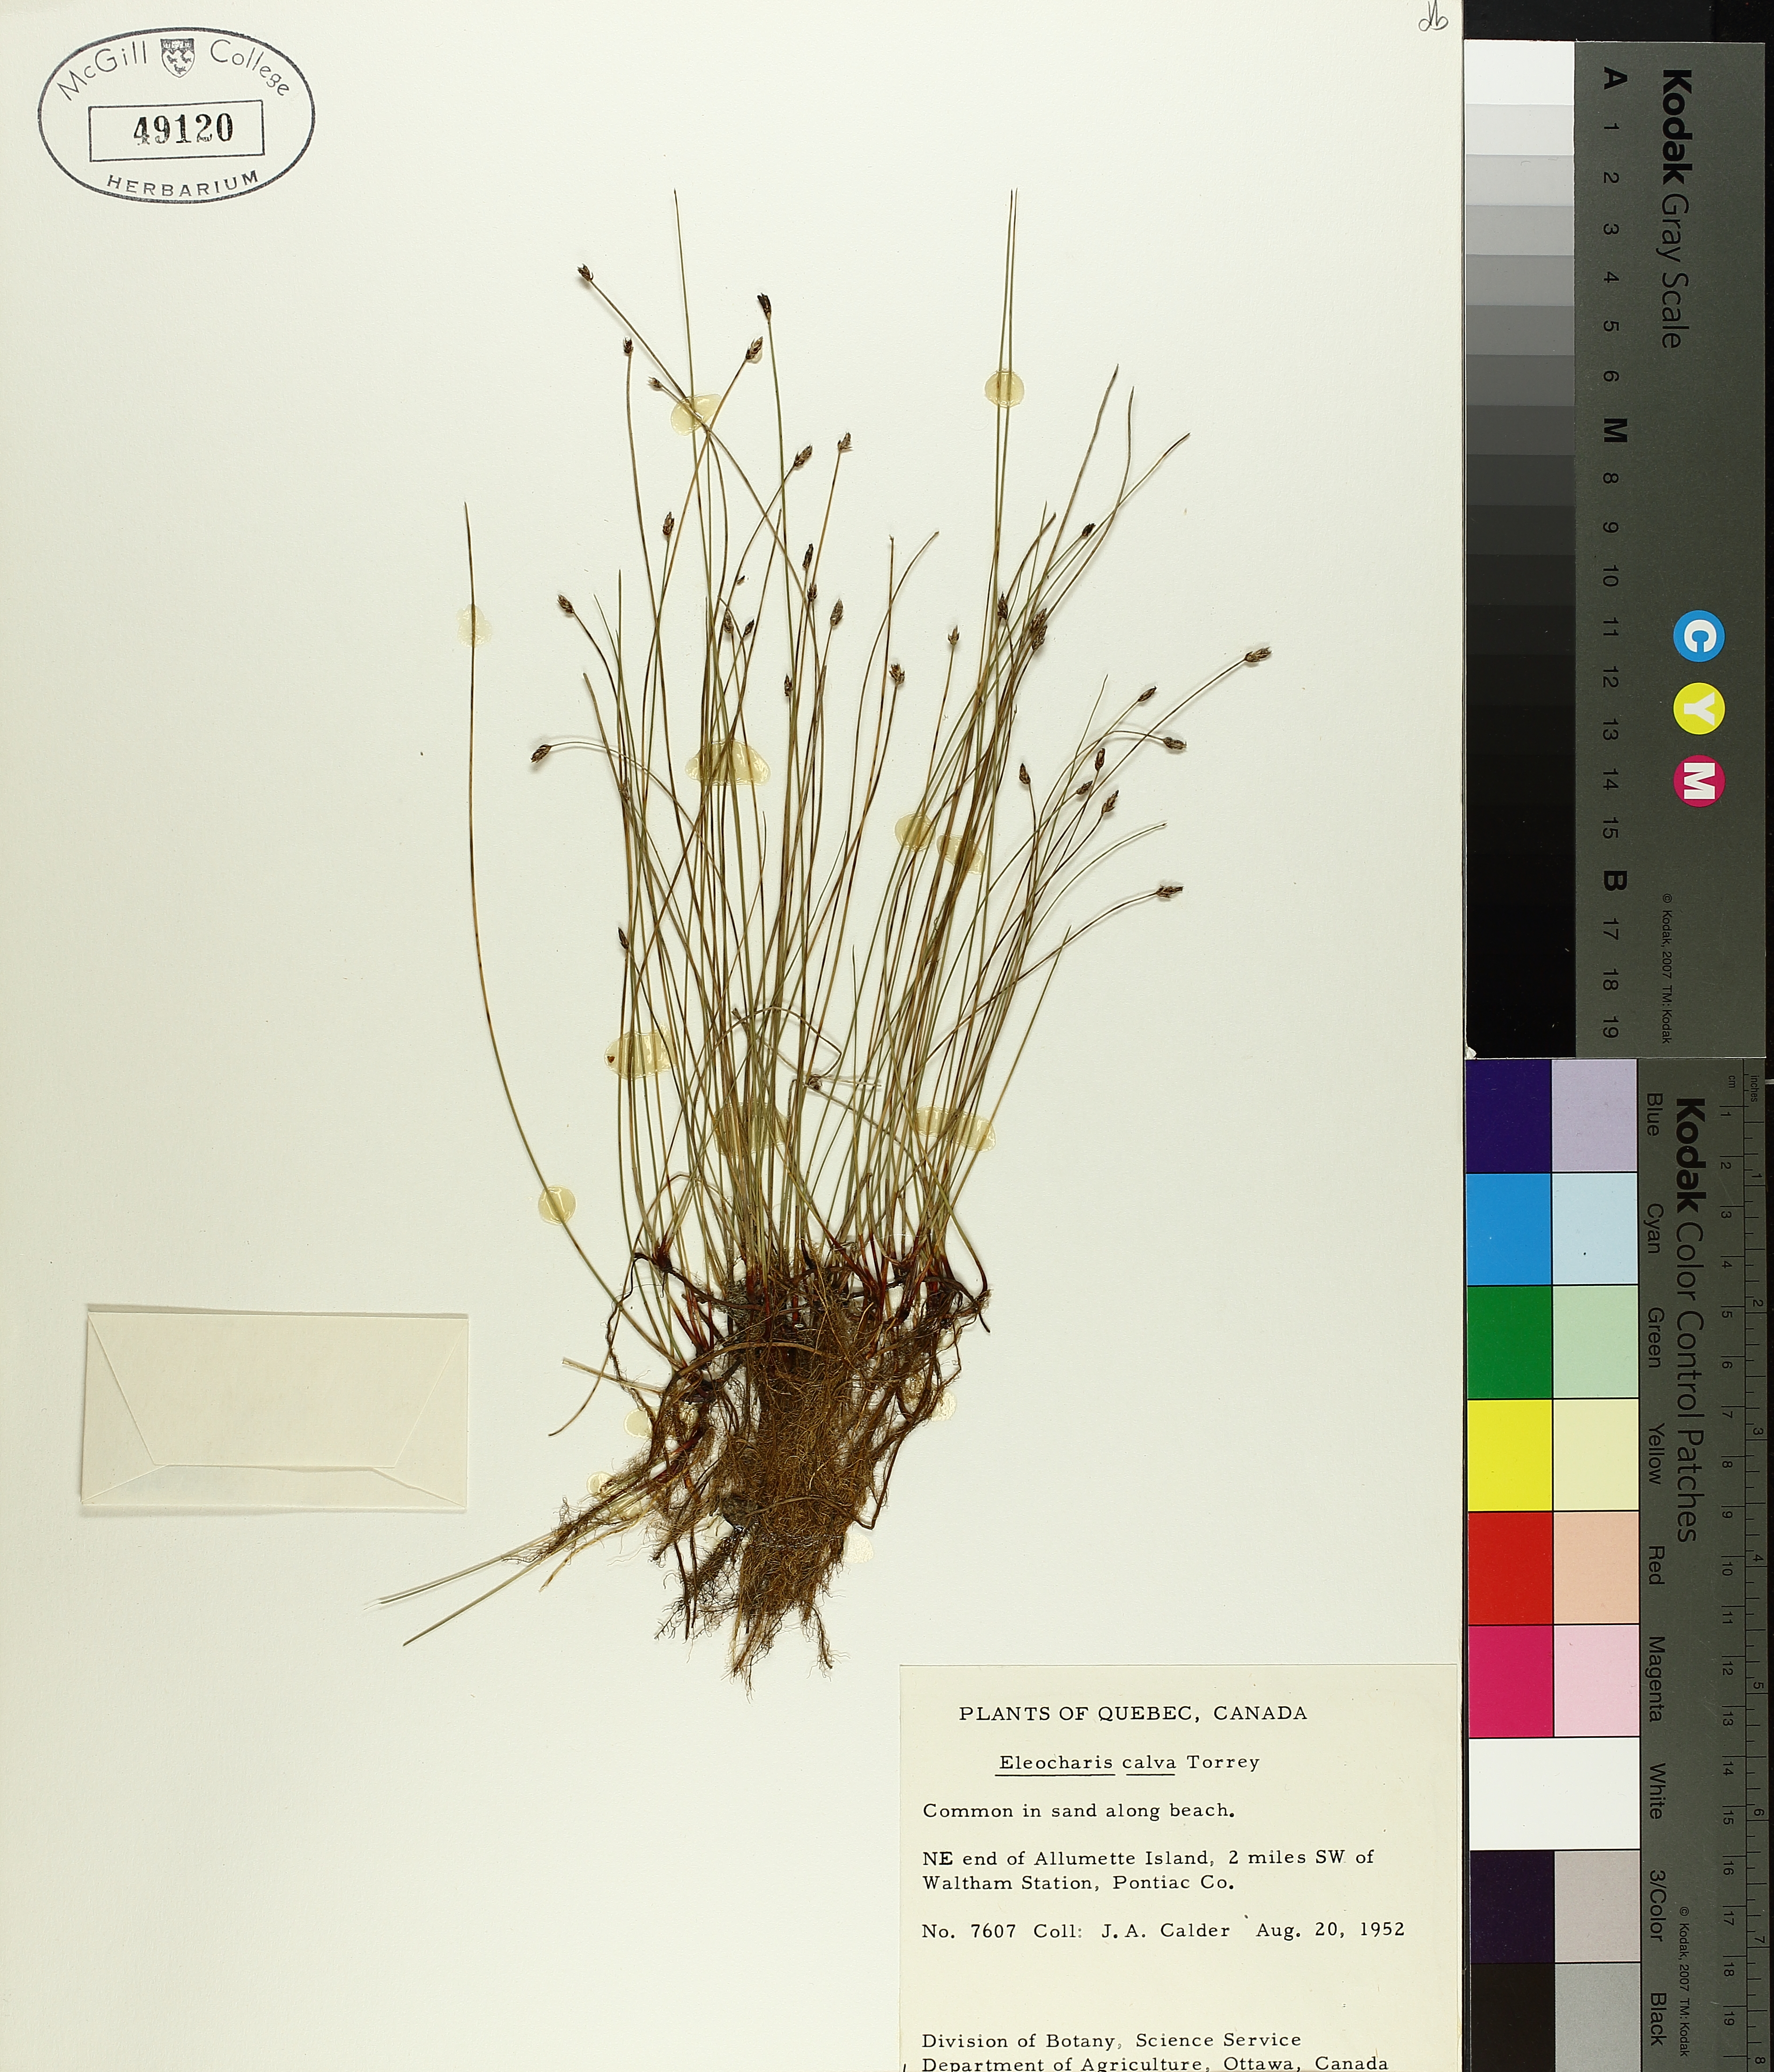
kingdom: Plantae
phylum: Tracheophyta
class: Liliopsida
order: Poales
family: Cyperaceae
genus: Eleocharis
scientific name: Eleocharis erythropoda
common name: Bald spikerush
